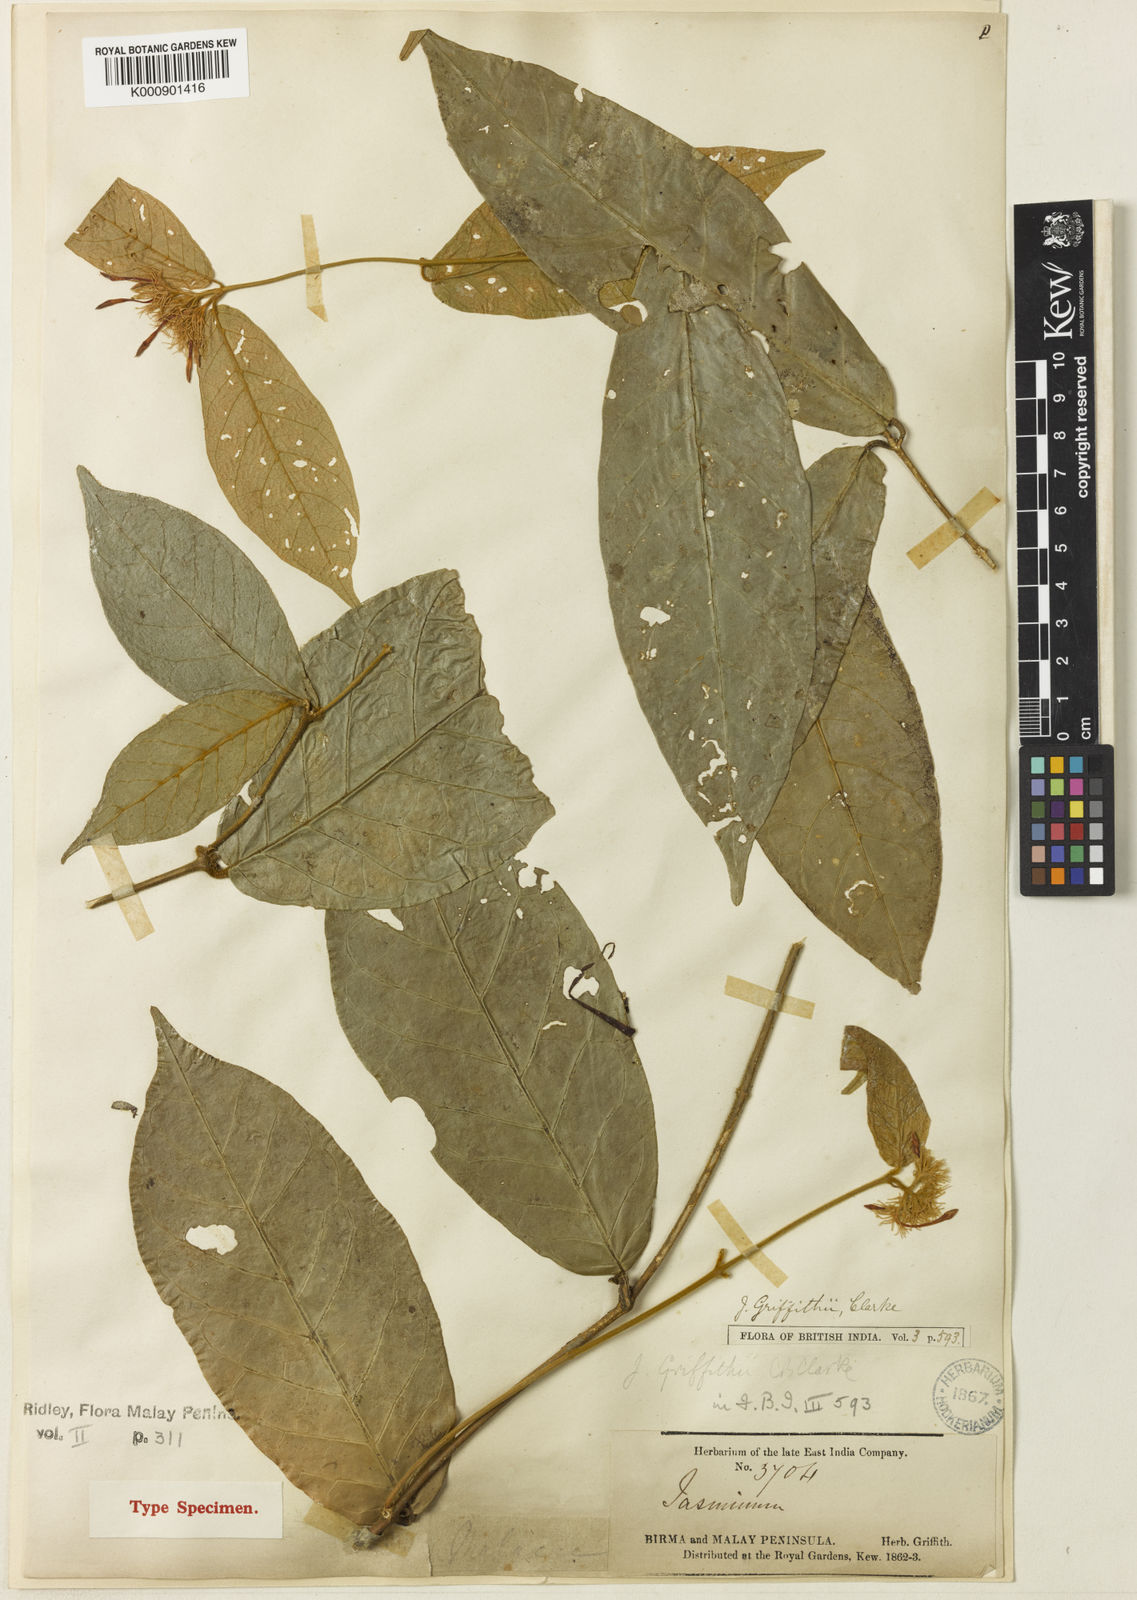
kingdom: Plantae
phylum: Tracheophyta
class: Magnoliopsida
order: Lamiales
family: Oleaceae
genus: Jasminum
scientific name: Jasminum griffithii
